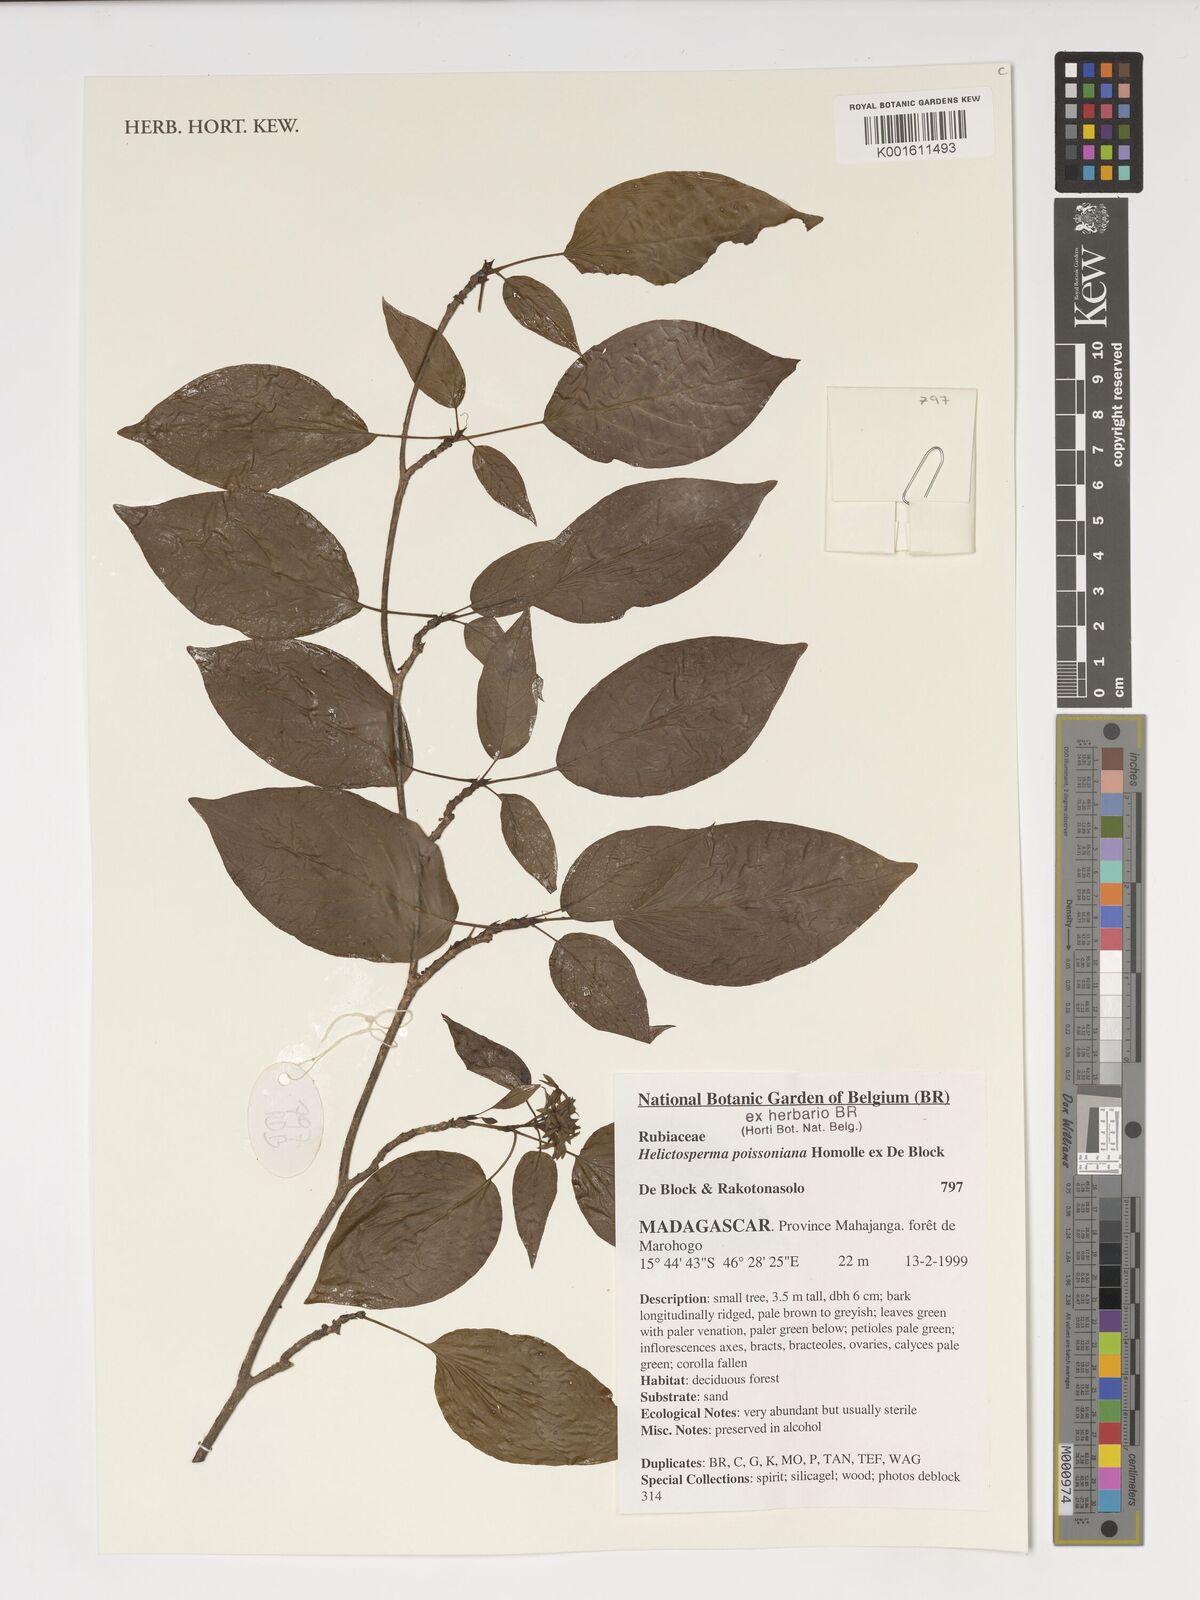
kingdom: Plantae
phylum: Tracheophyta
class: Magnoliopsida
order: Gentianales
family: Rubiaceae
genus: Helictosperma
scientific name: Helictosperma poissonianum
